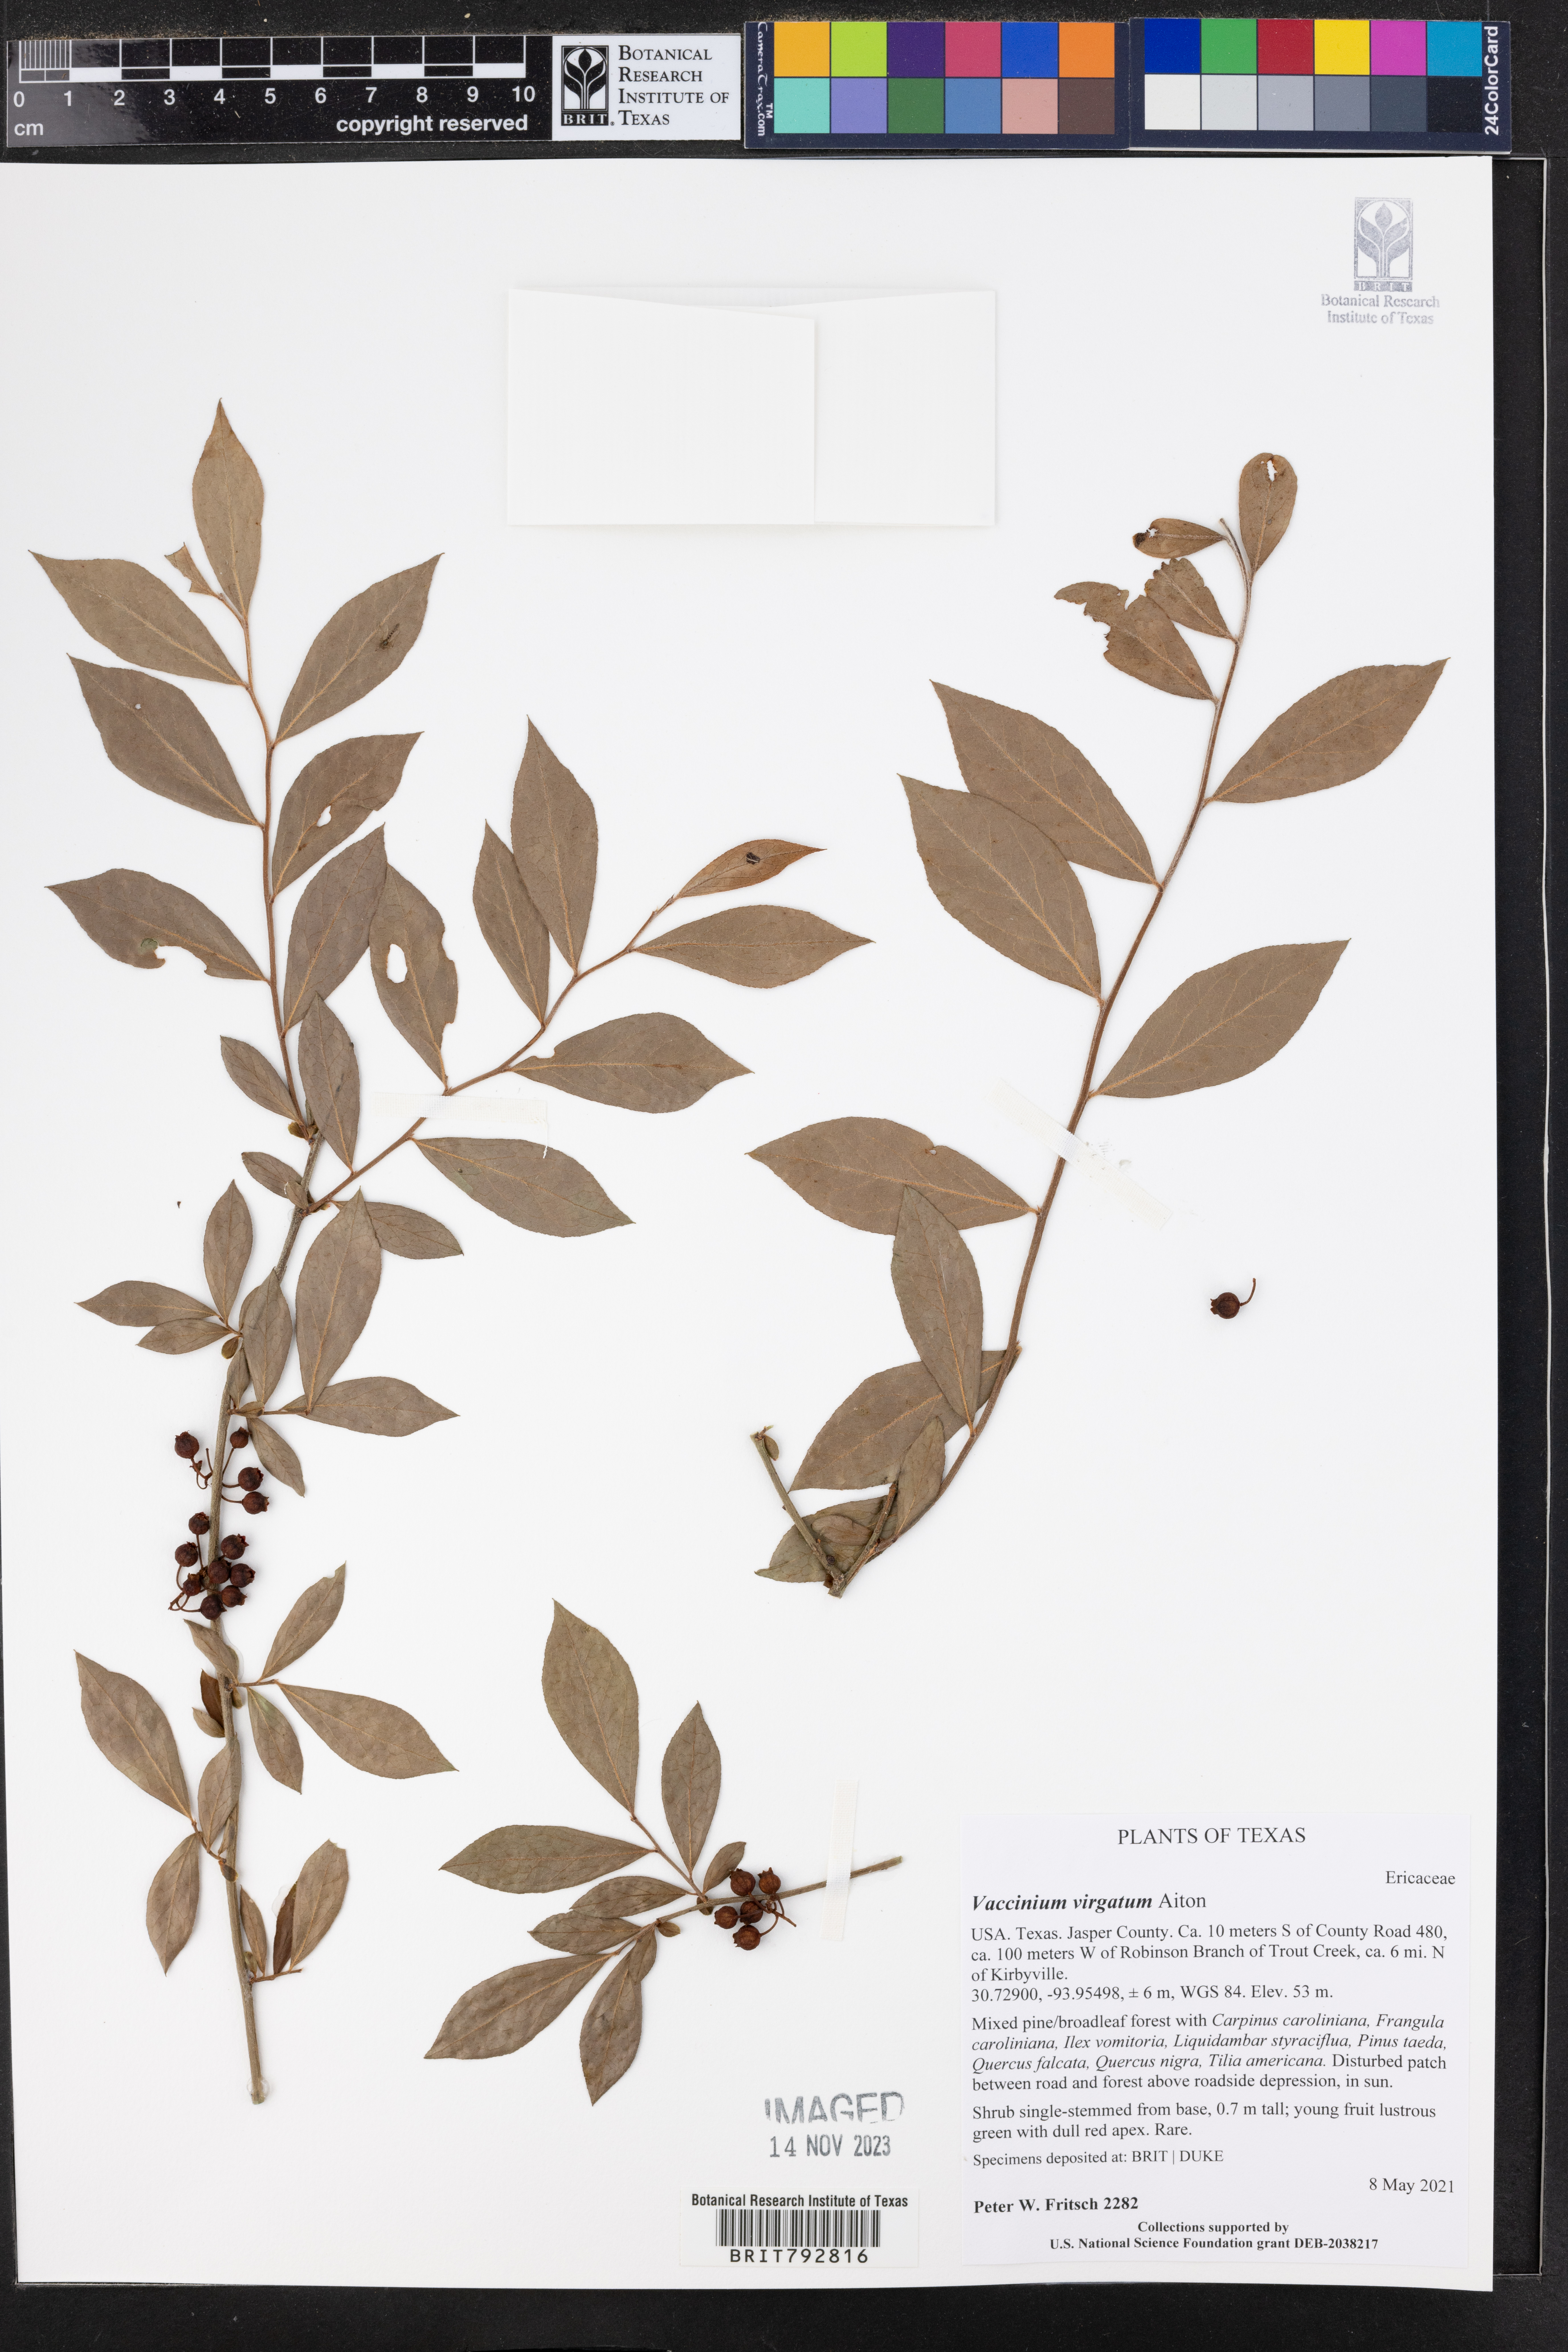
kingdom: Plantae
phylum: Tracheophyta
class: Magnoliopsida
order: Ericales
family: Ericaceae
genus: Vaccinium
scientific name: Vaccinium corymbosum
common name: Blueberry
